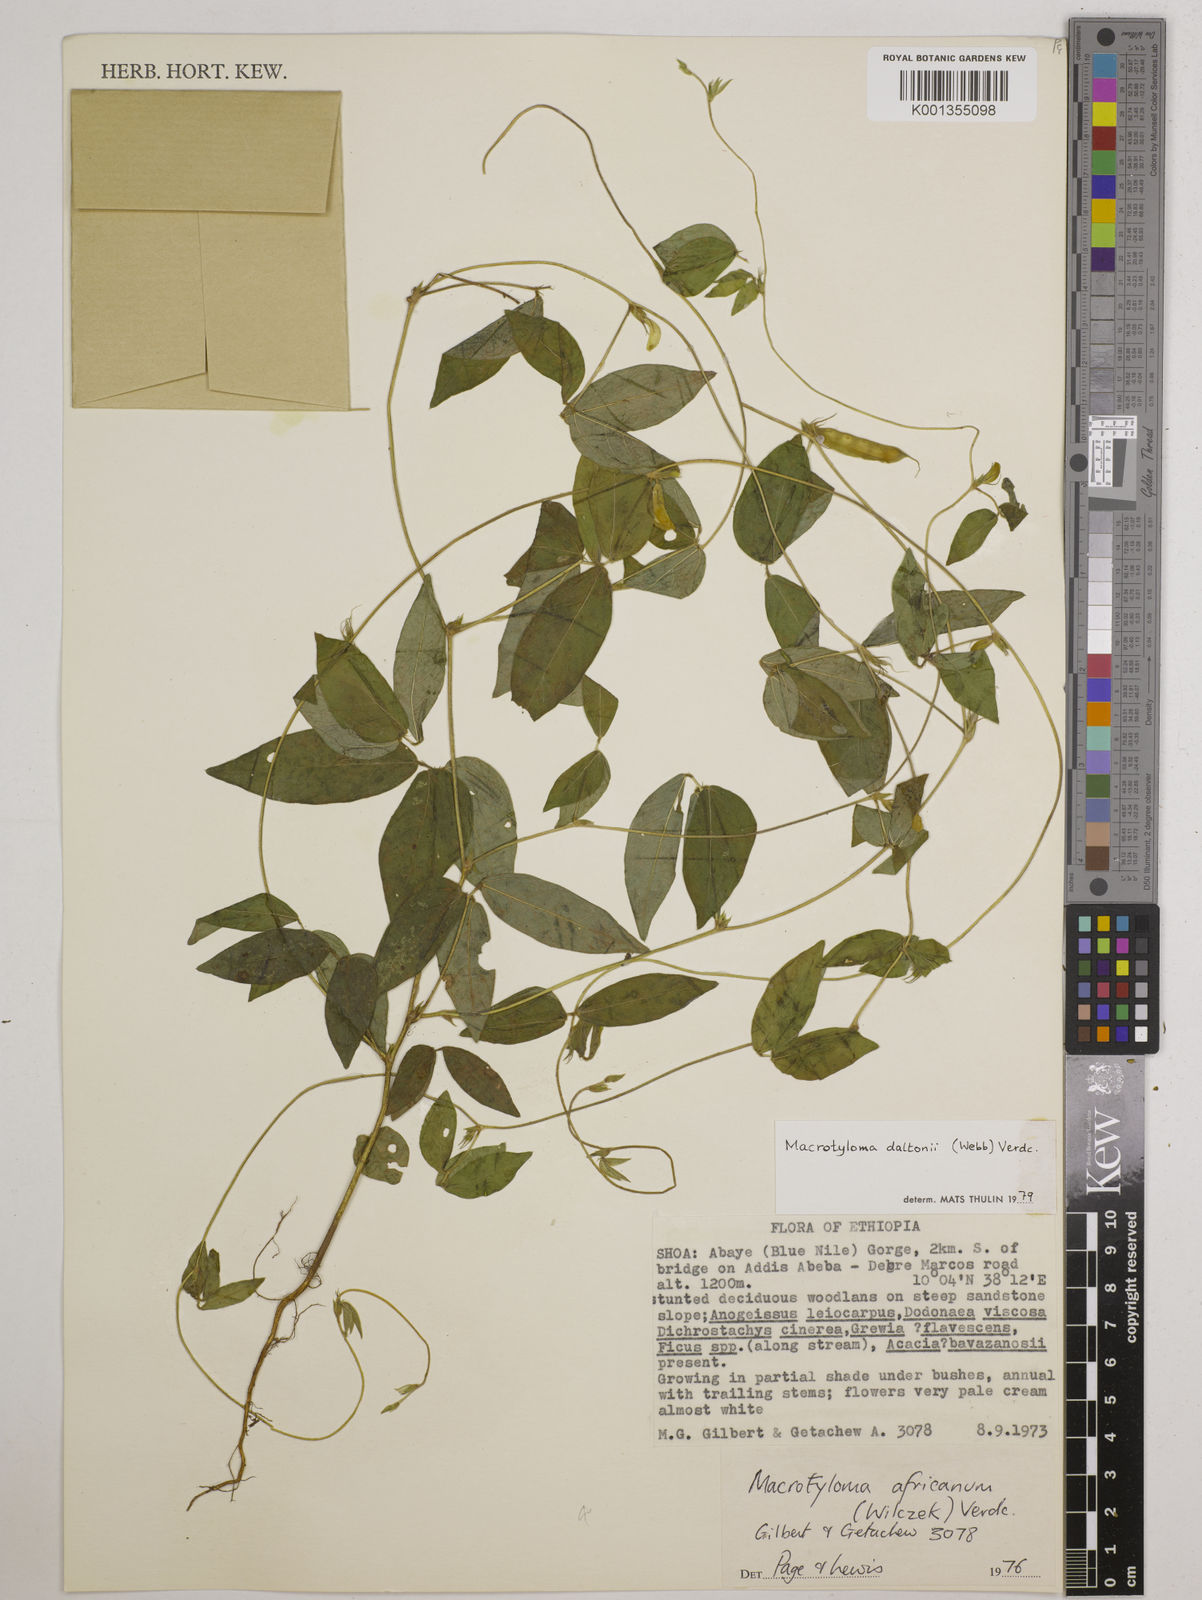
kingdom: Plantae
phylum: Tracheophyta
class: Magnoliopsida
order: Fabales
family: Fabaceae
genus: Macrotyloma
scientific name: Macrotyloma daltonii
